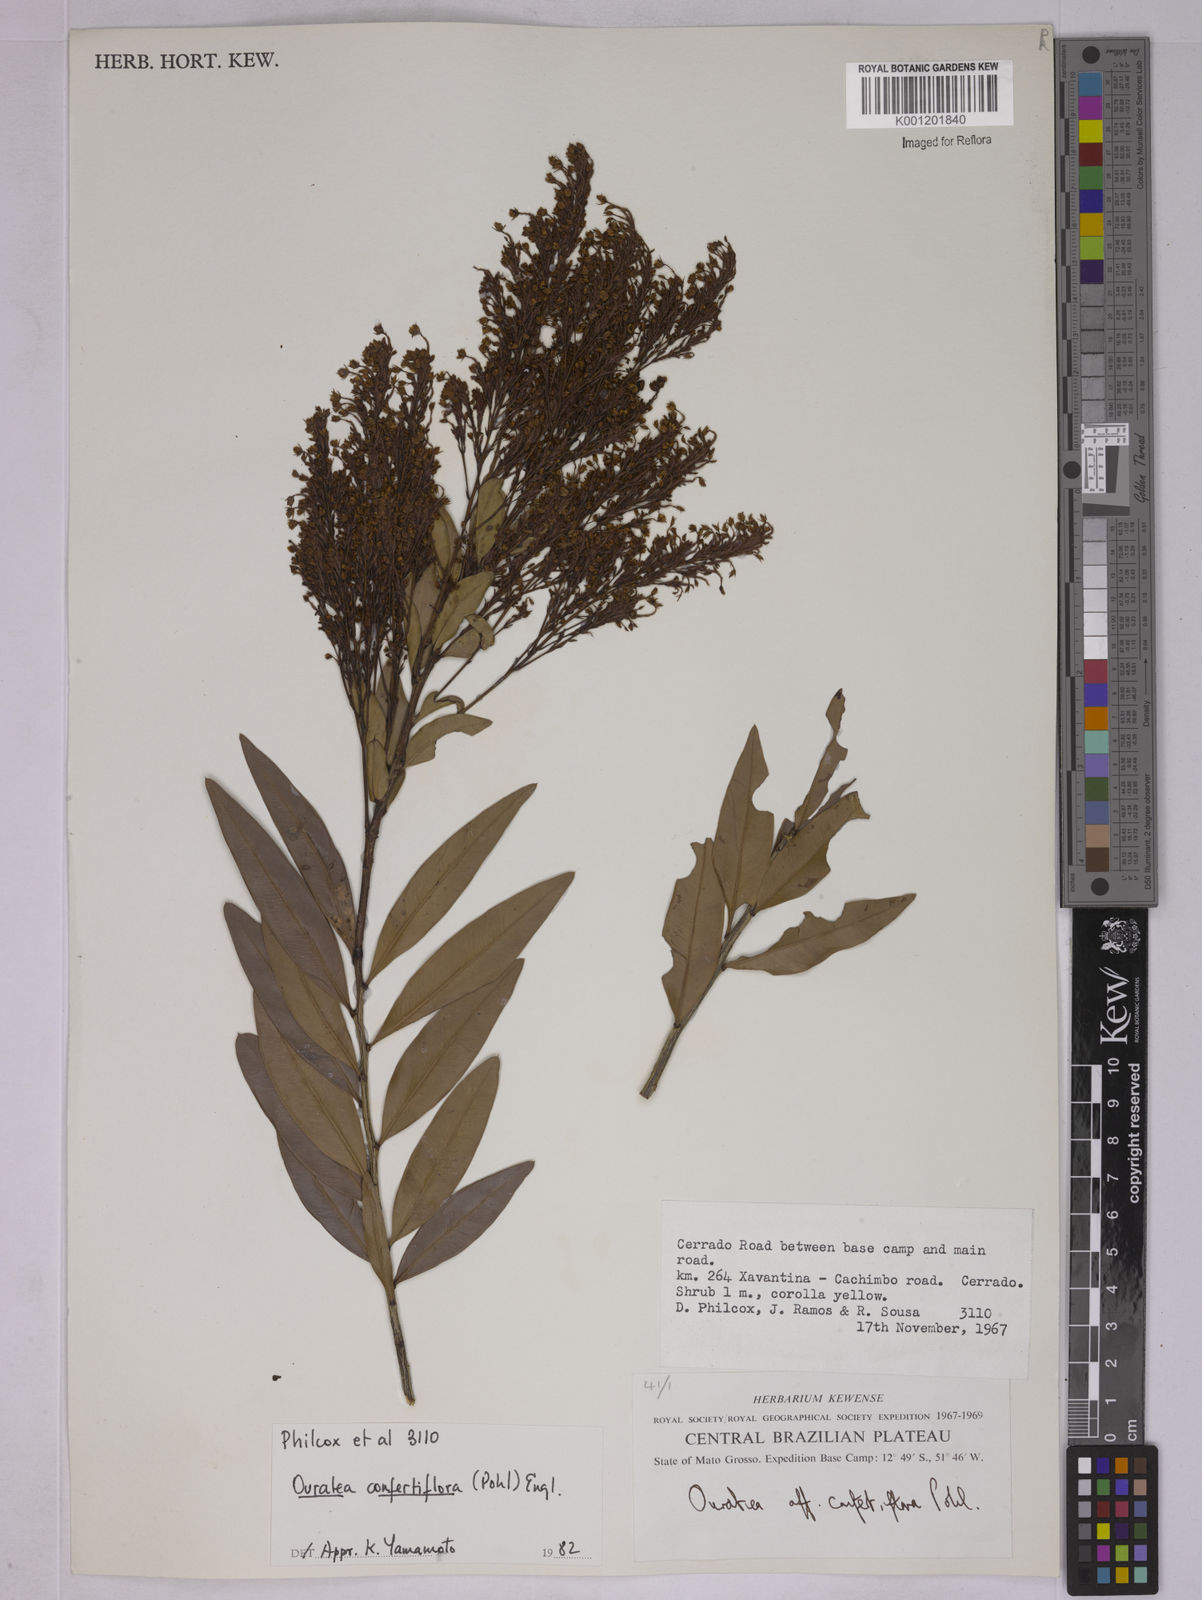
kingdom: Plantae
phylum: Tracheophyta
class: Magnoliopsida
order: Malpighiales
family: Ochnaceae
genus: Ouratea
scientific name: Ouratea confertiflora
